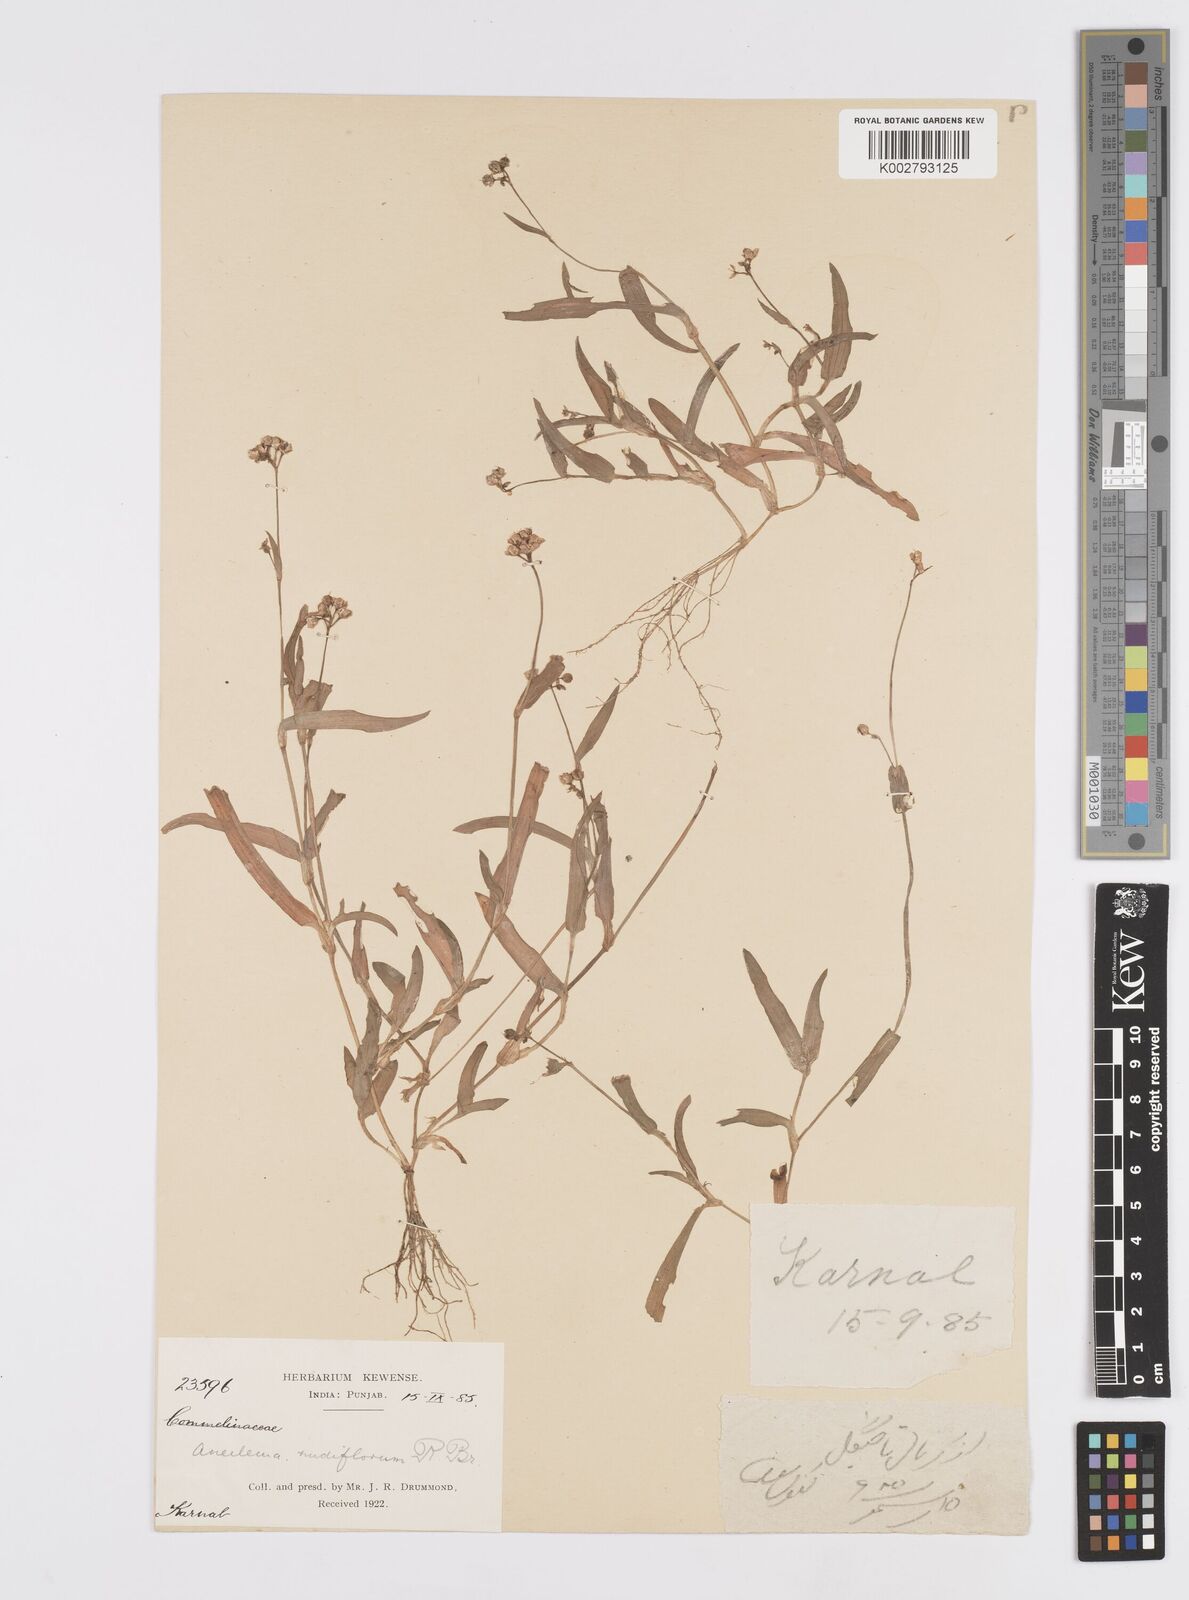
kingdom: Plantae
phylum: Tracheophyta
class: Liliopsida
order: Commelinales
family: Commelinaceae
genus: Murdannia
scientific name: Murdannia nudiflora
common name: Nakedstem dewflower
